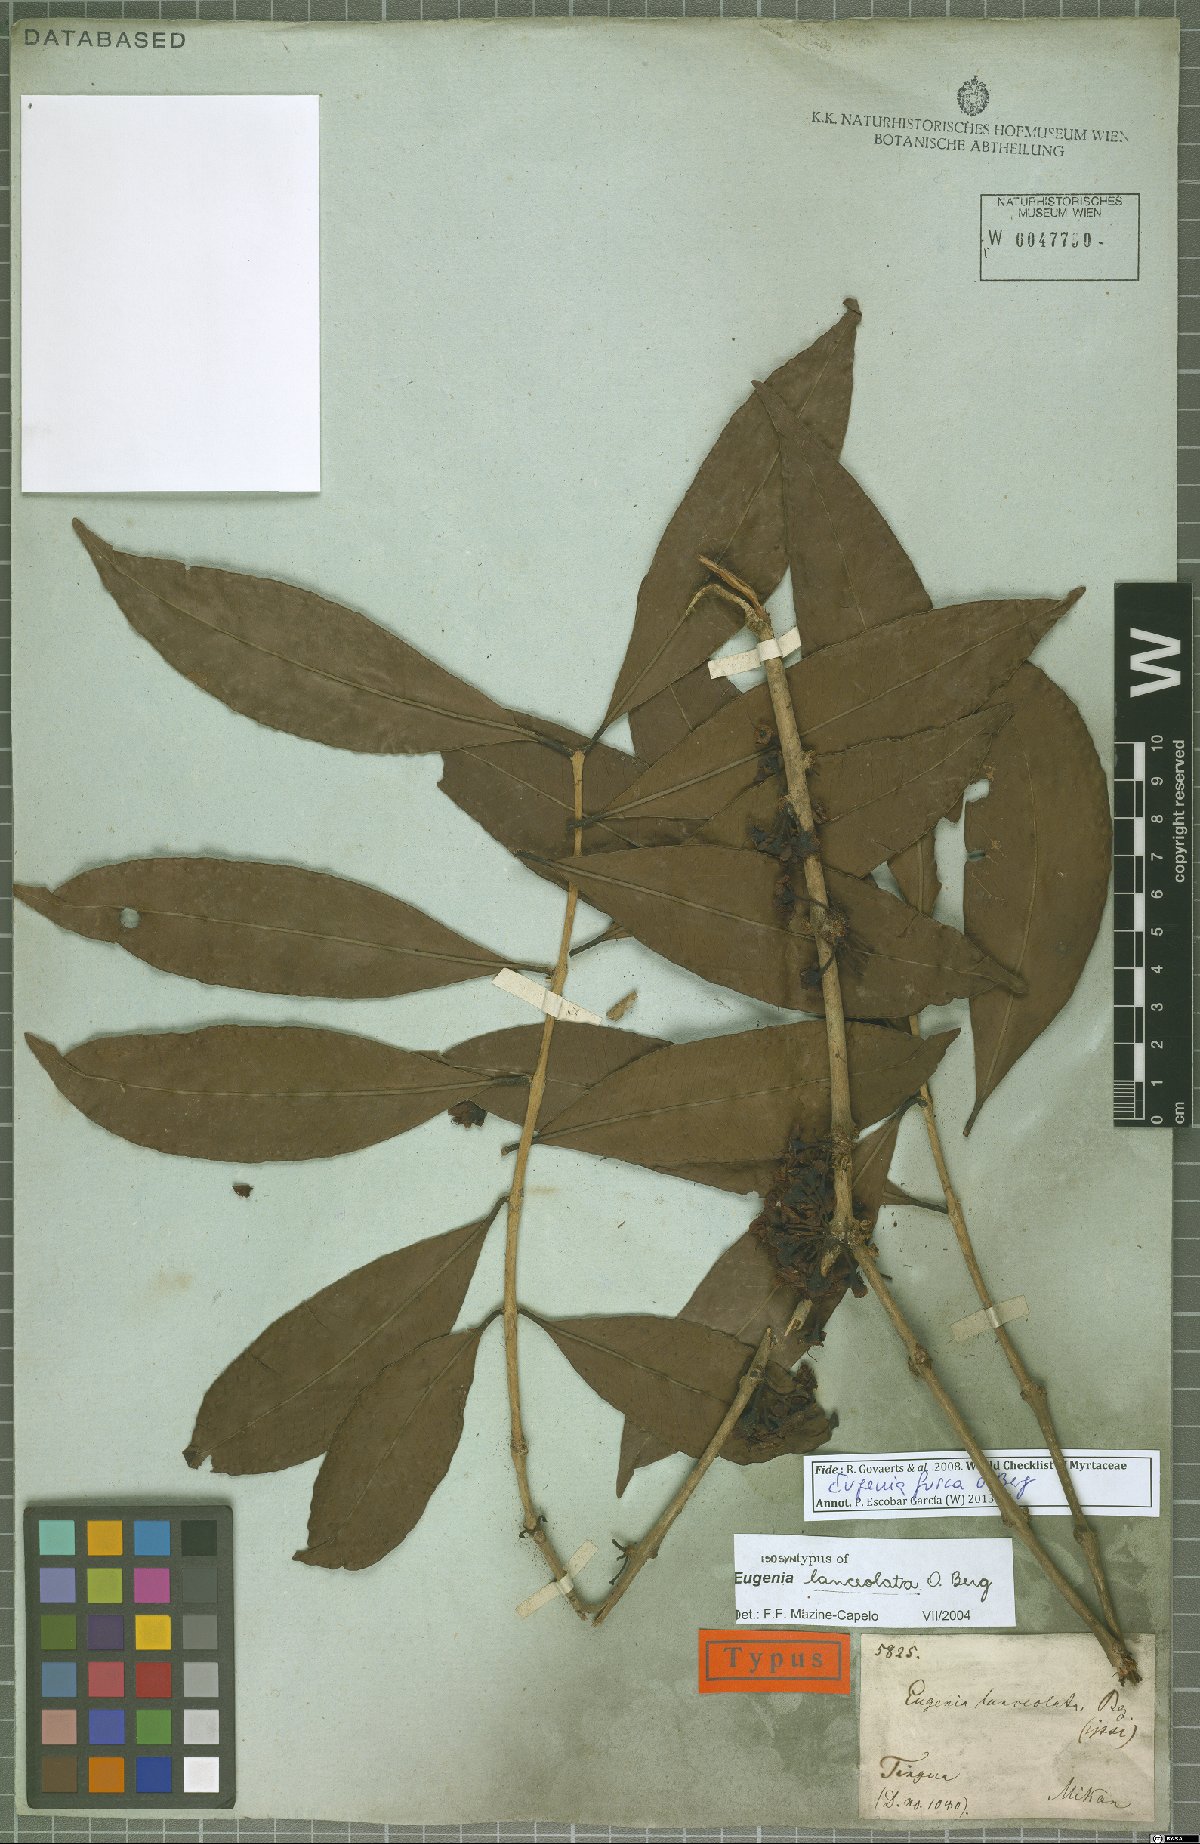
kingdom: Plantae
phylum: Tracheophyta
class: Magnoliopsida
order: Myrtales
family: Myrtaceae
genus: Eugenia
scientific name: Eugenia fusca
